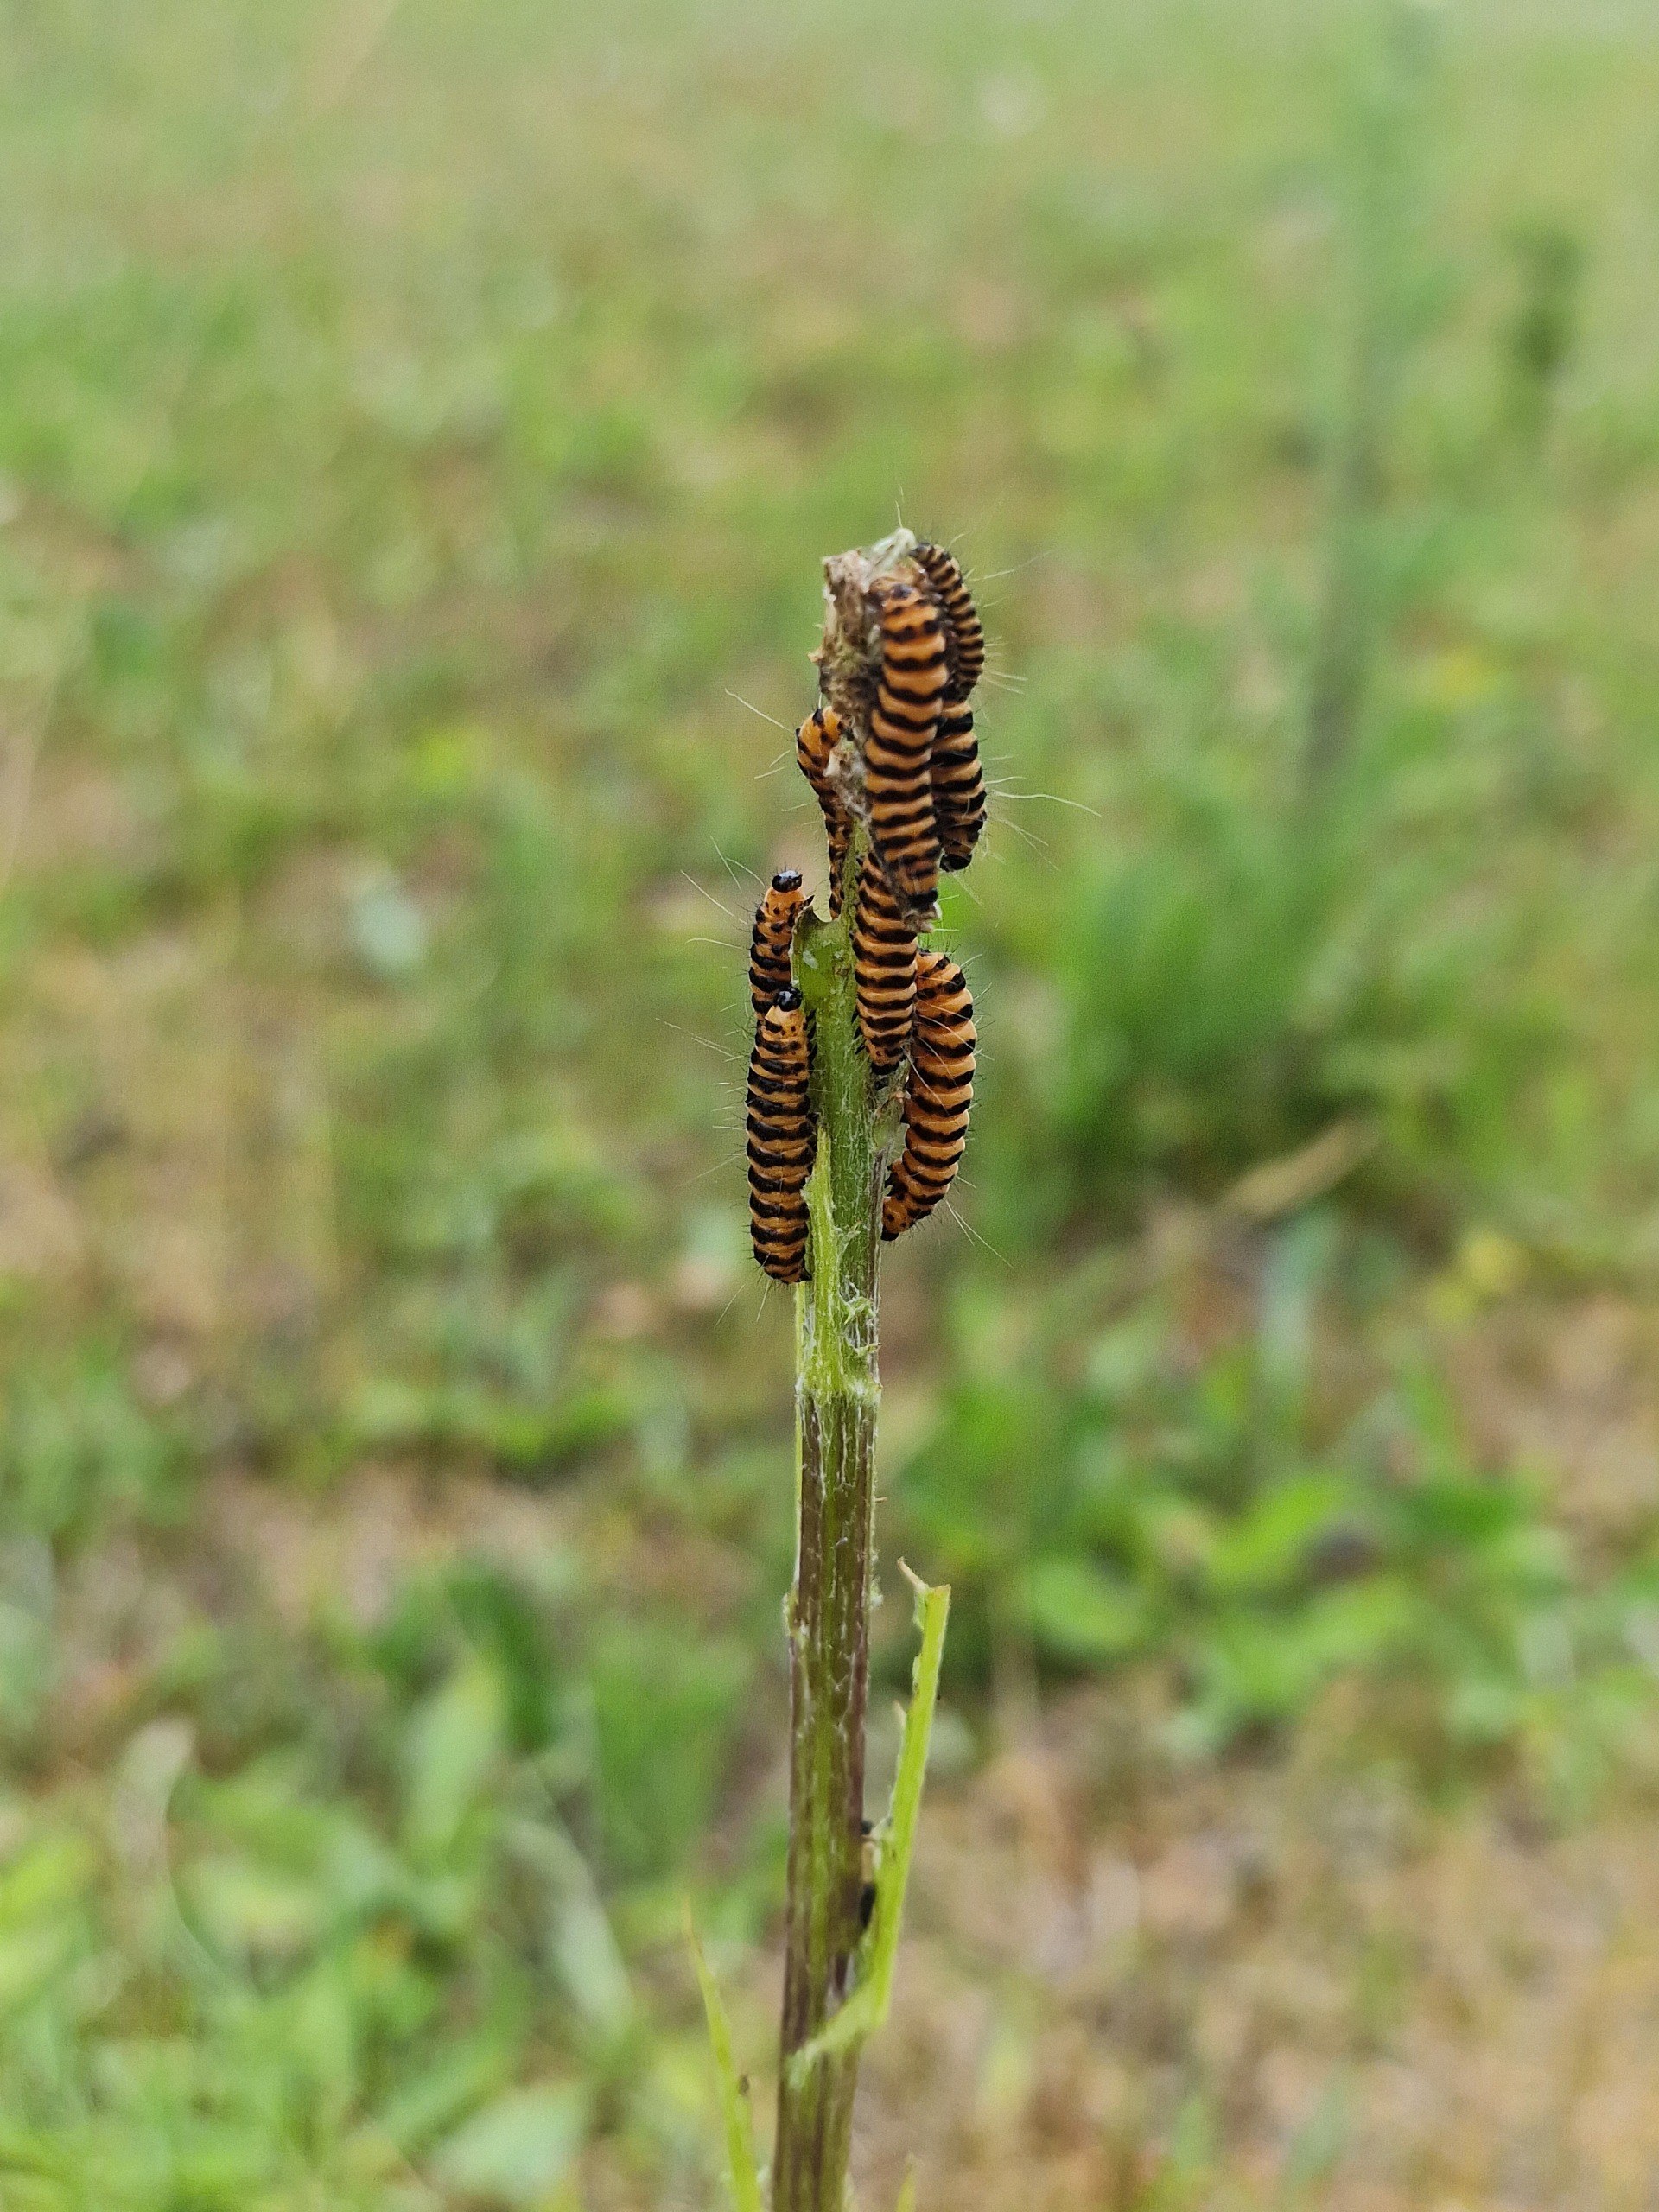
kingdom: Animalia
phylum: Arthropoda
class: Insecta
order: Lepidoptera
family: Erebidae
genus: Tyria
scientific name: Tyria jacobaeae
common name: Blodplet
